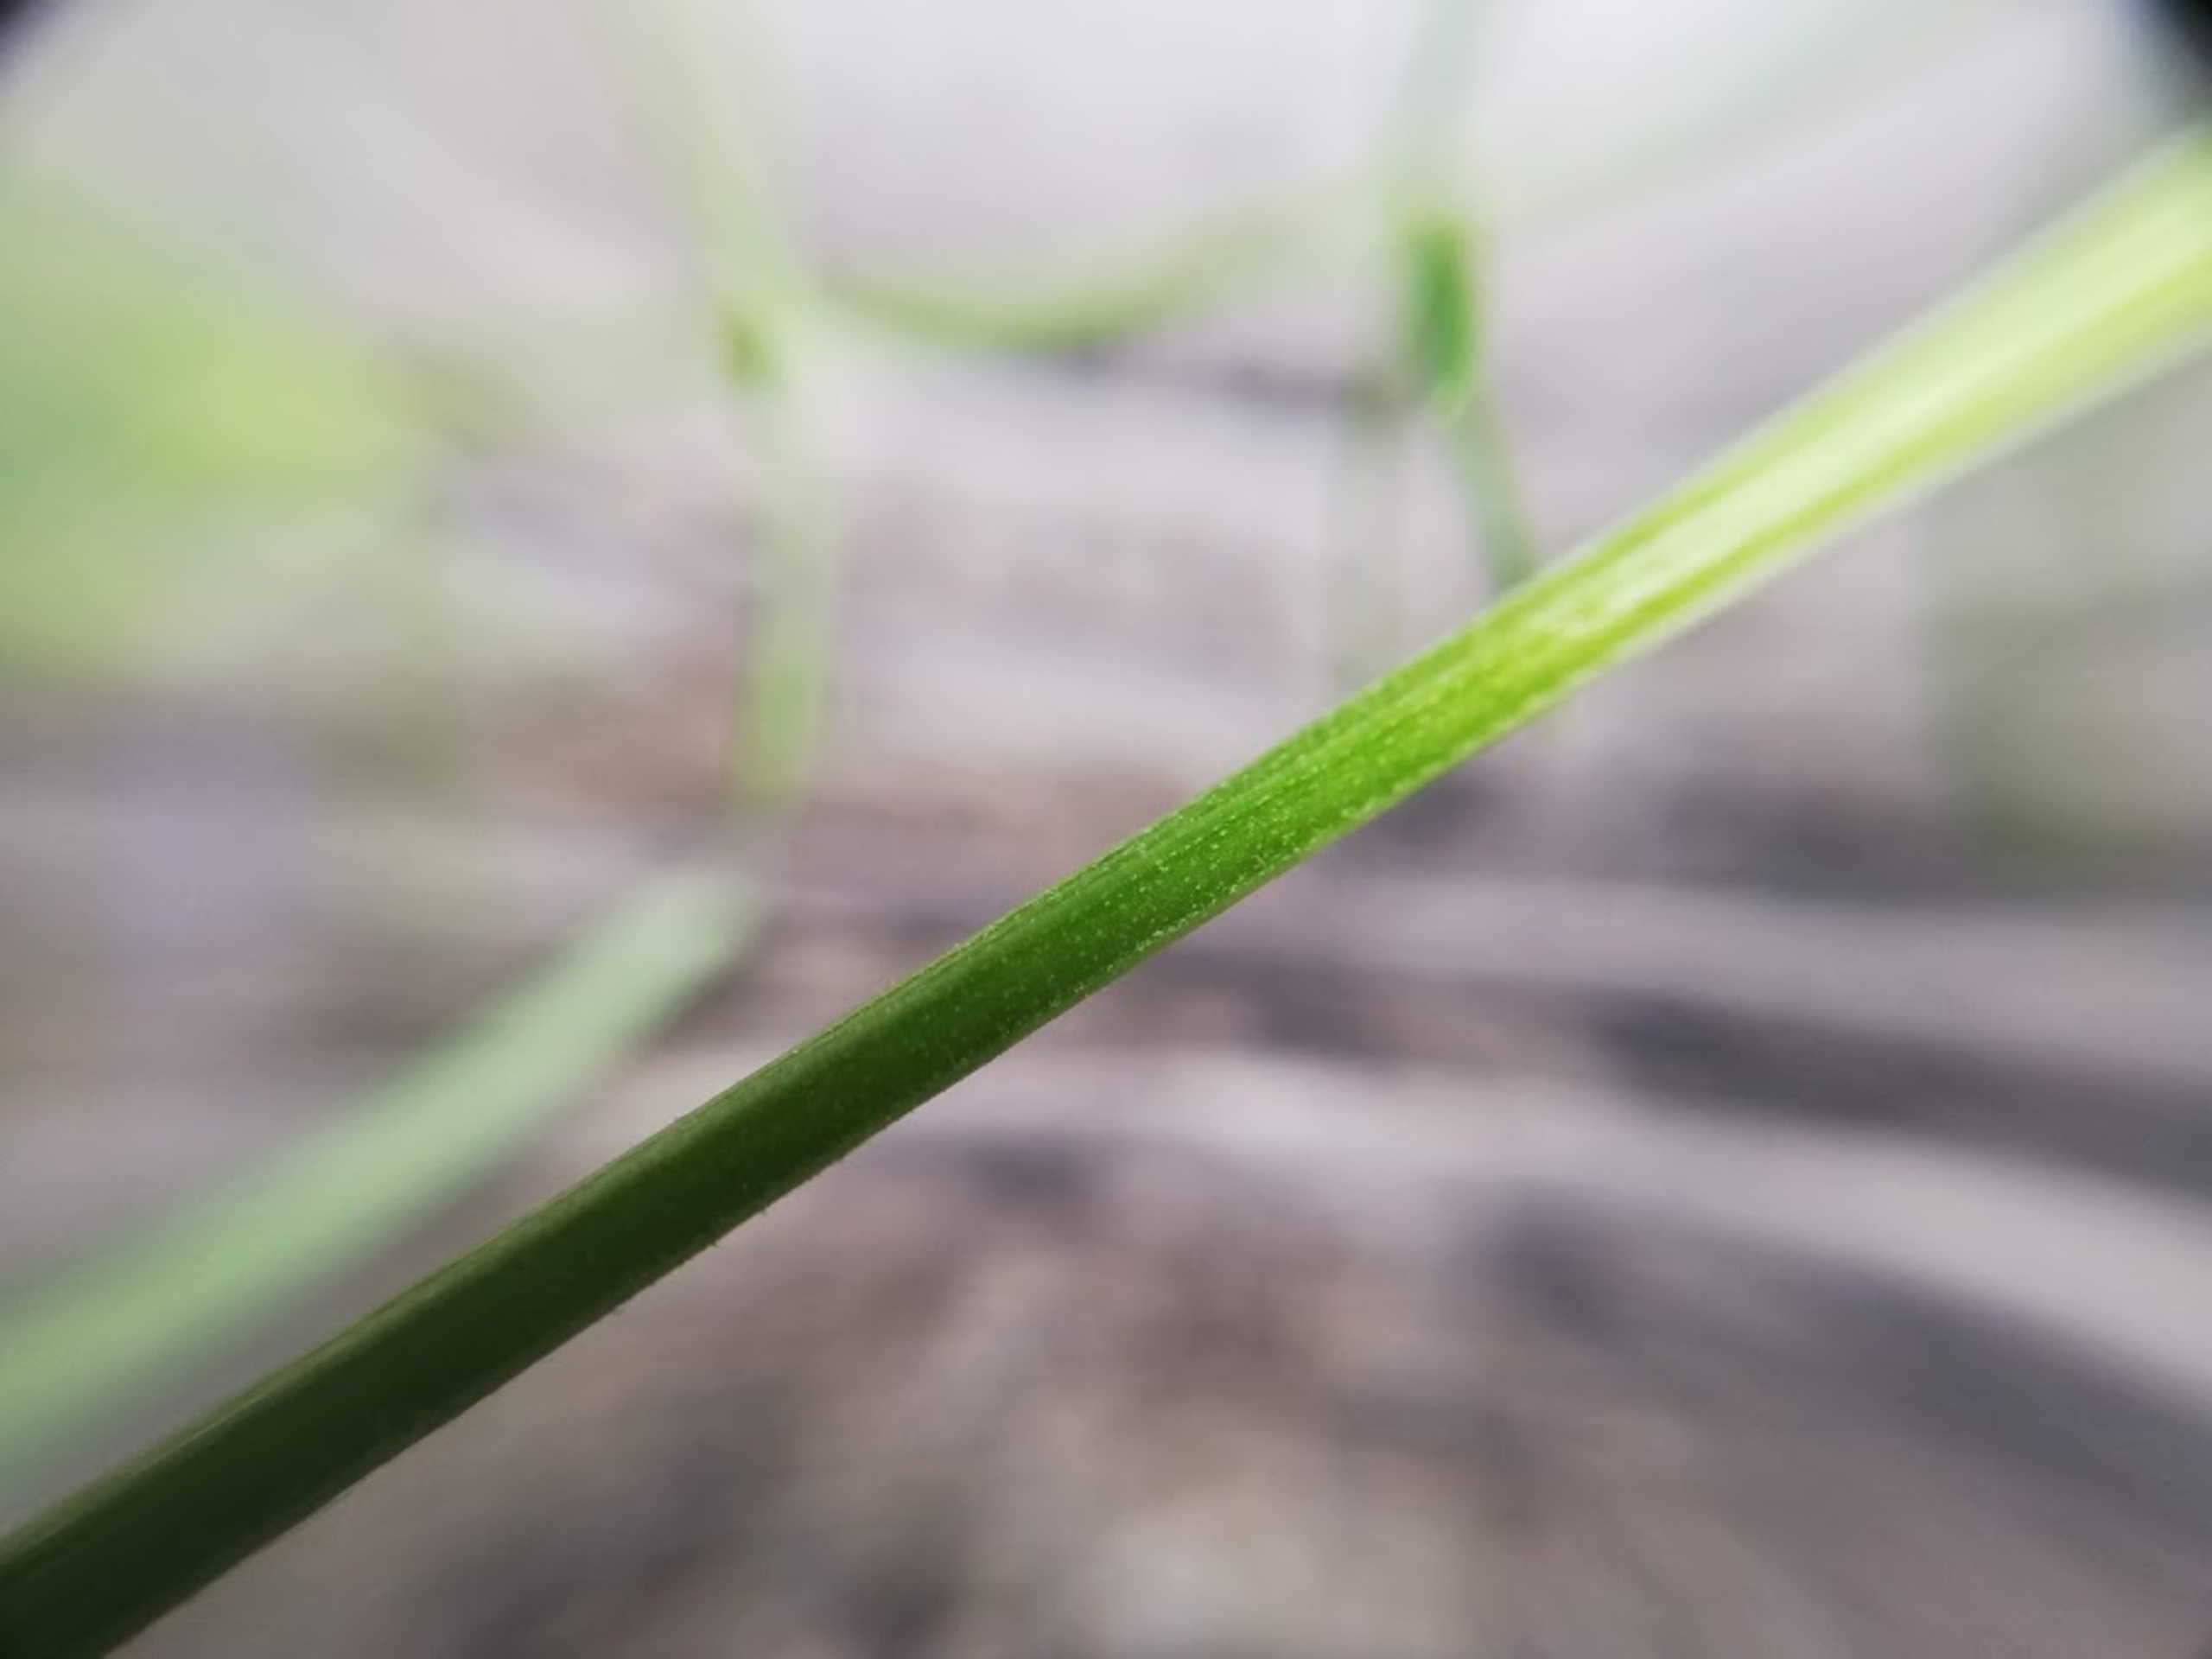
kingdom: Plantae
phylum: Tracheophyta
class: Magnoliopsida
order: Gentianales
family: Rubiaceae
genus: Galium
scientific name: Galium verum
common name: Gul snerre
